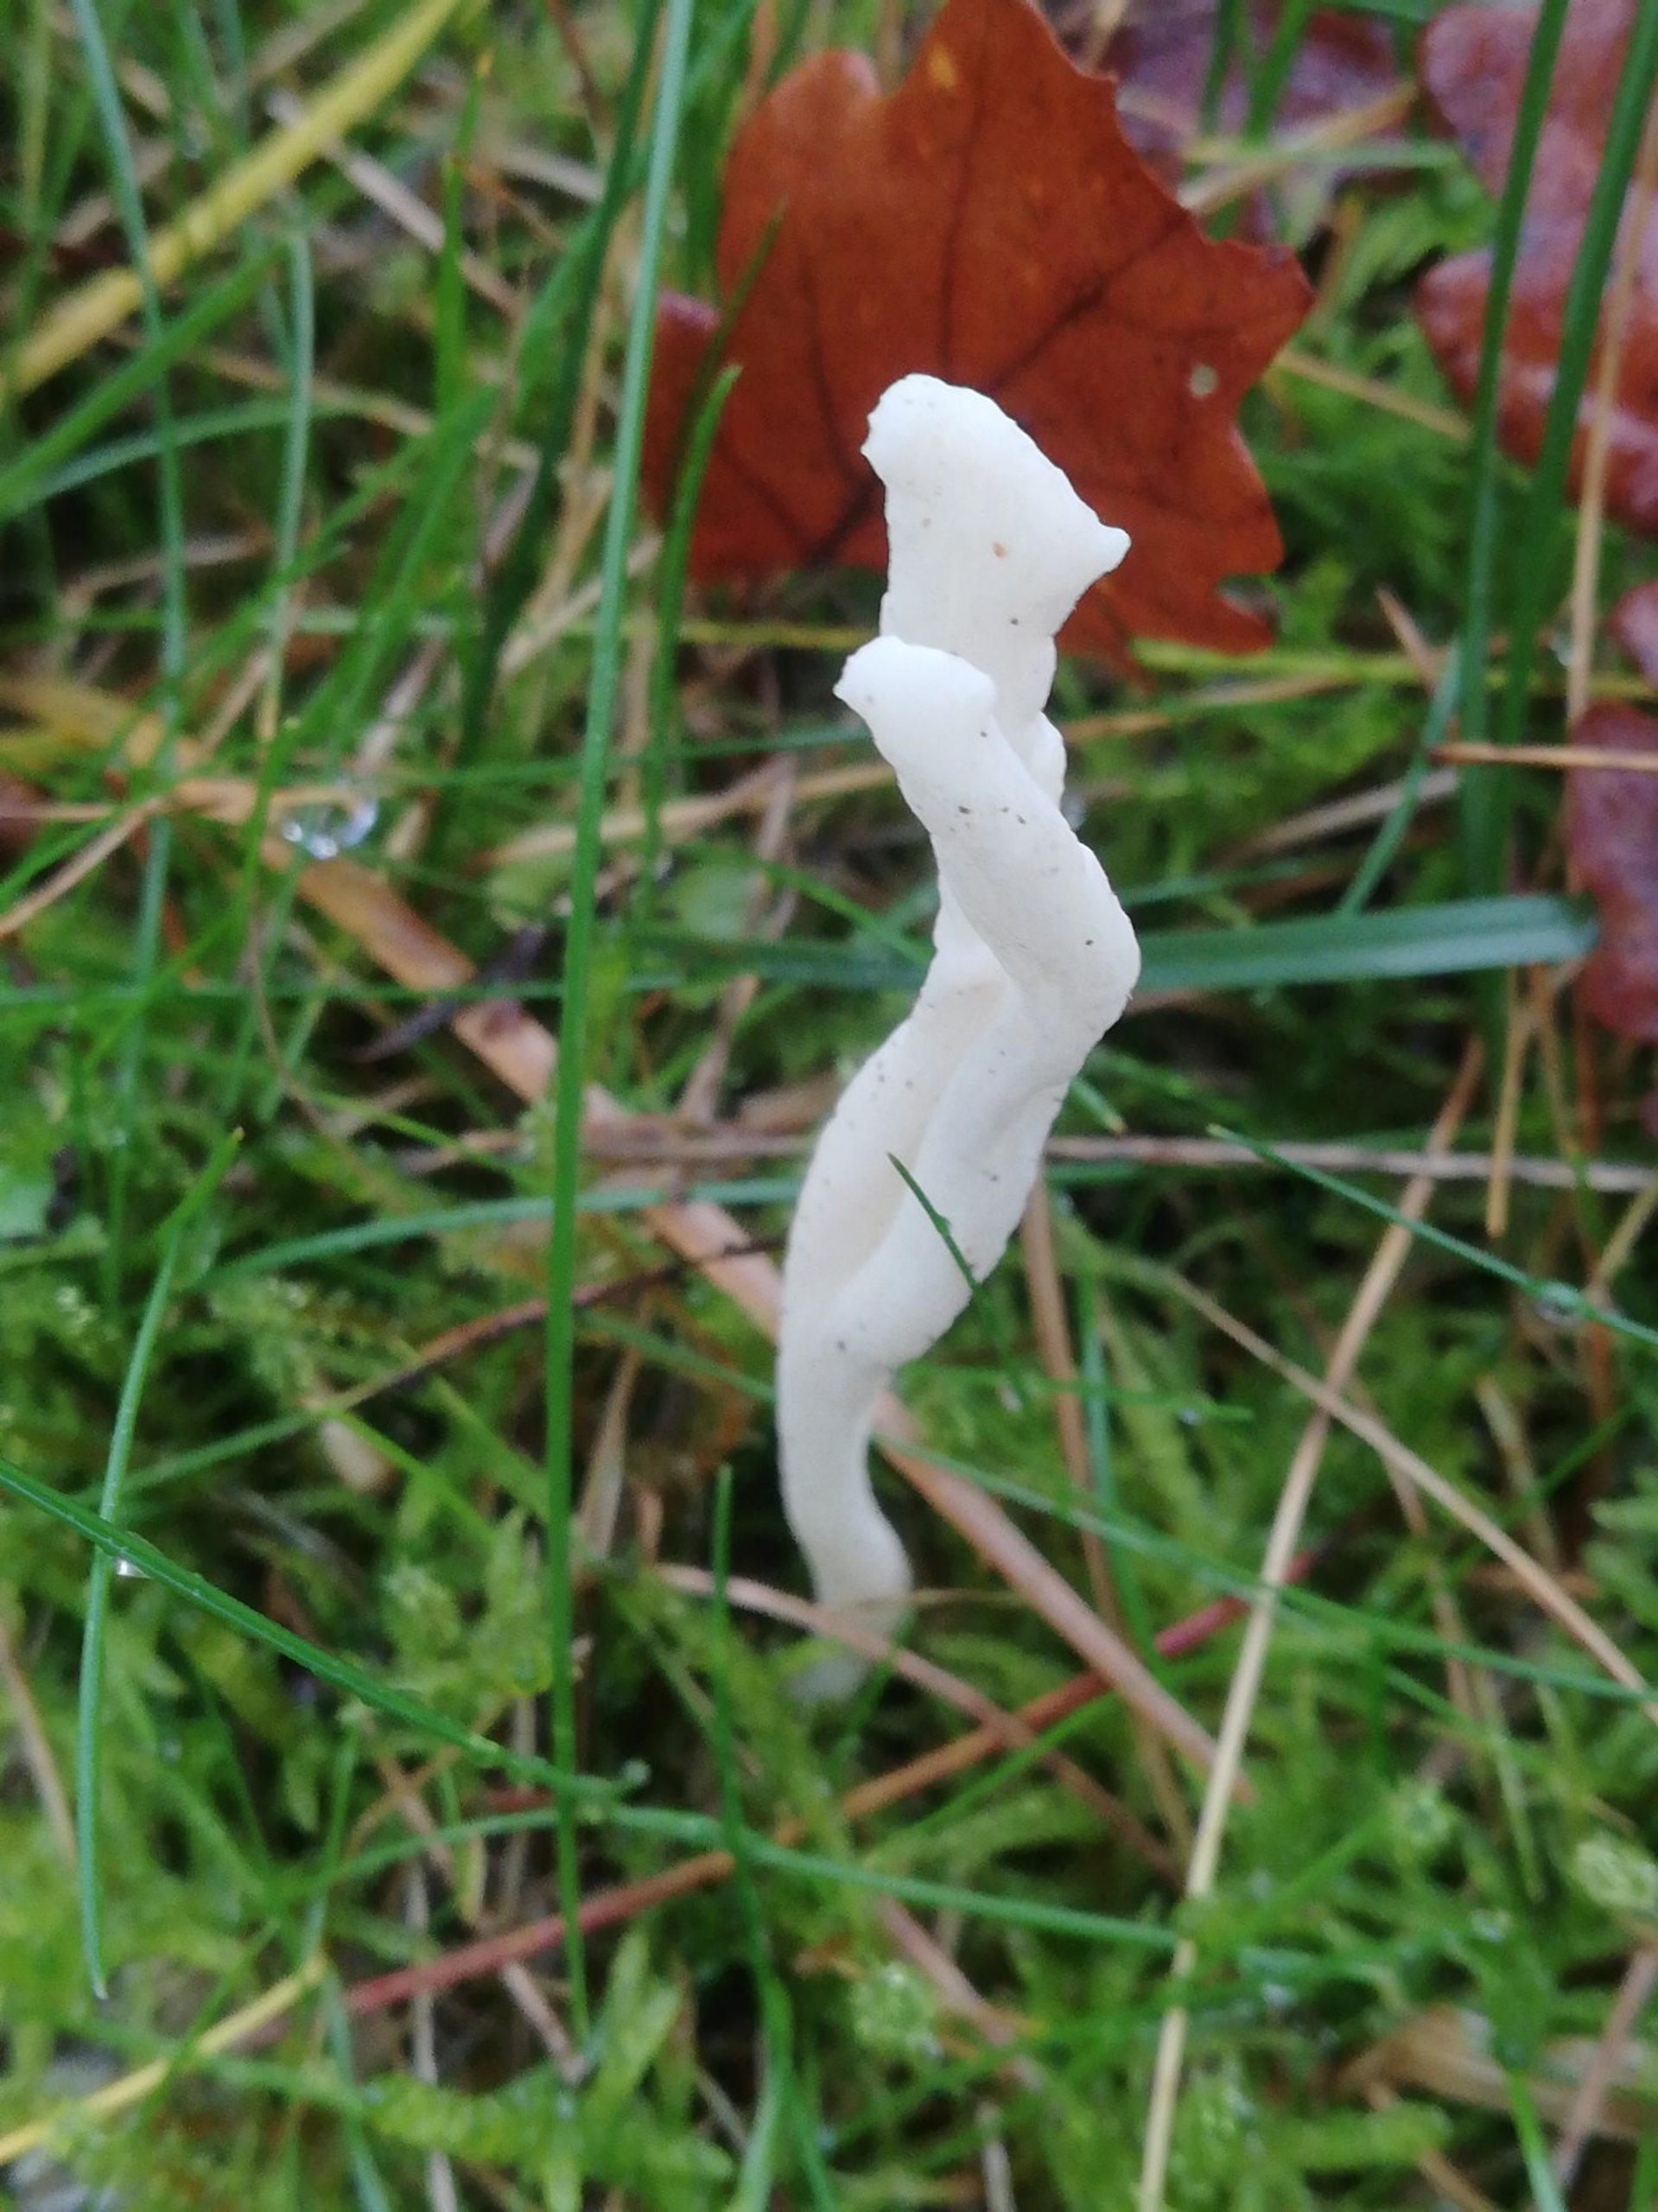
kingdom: Fungi
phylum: Basidiomycota
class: Agaricomycetes
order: Cantharellales
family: Hydnaceae
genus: Clavulina
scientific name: Clavulina rugosa
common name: Rynket troldkølle
